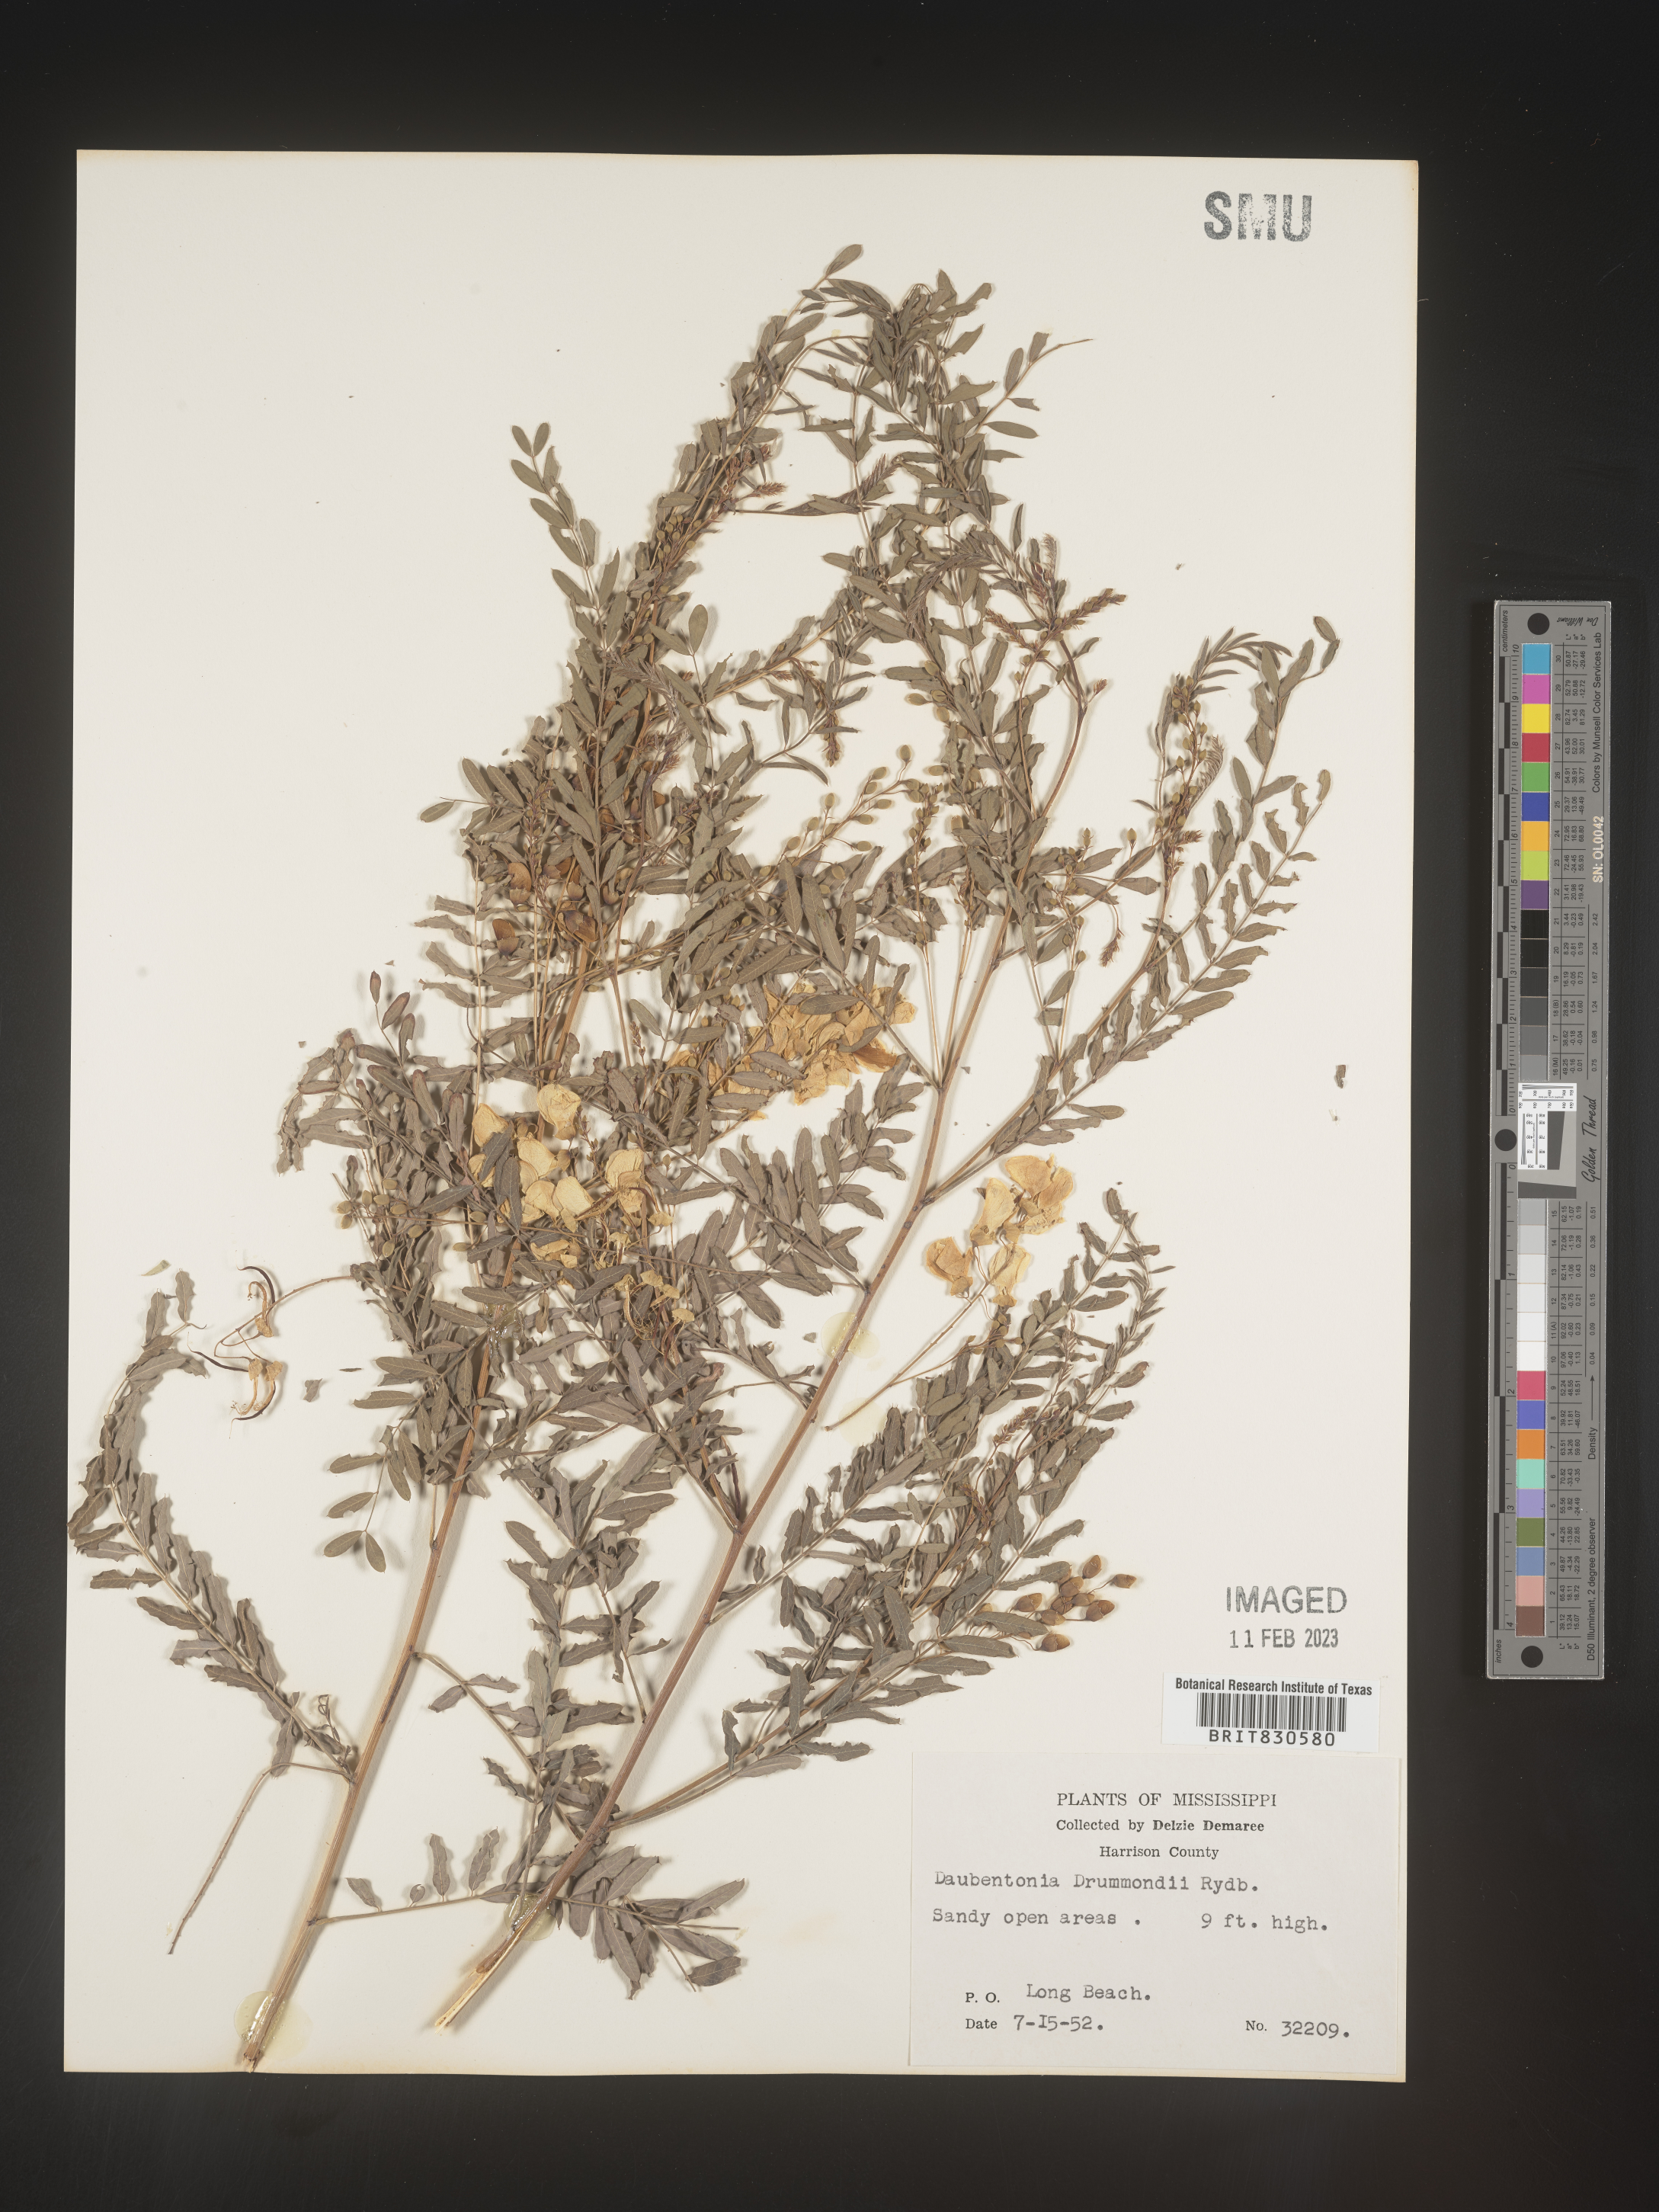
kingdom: Plantae
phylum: Tracheophyta
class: Magnoliopsida
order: Fabales
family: Fabaceae
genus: Sesbania
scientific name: Sesbania drummondii
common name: Poison-bean
